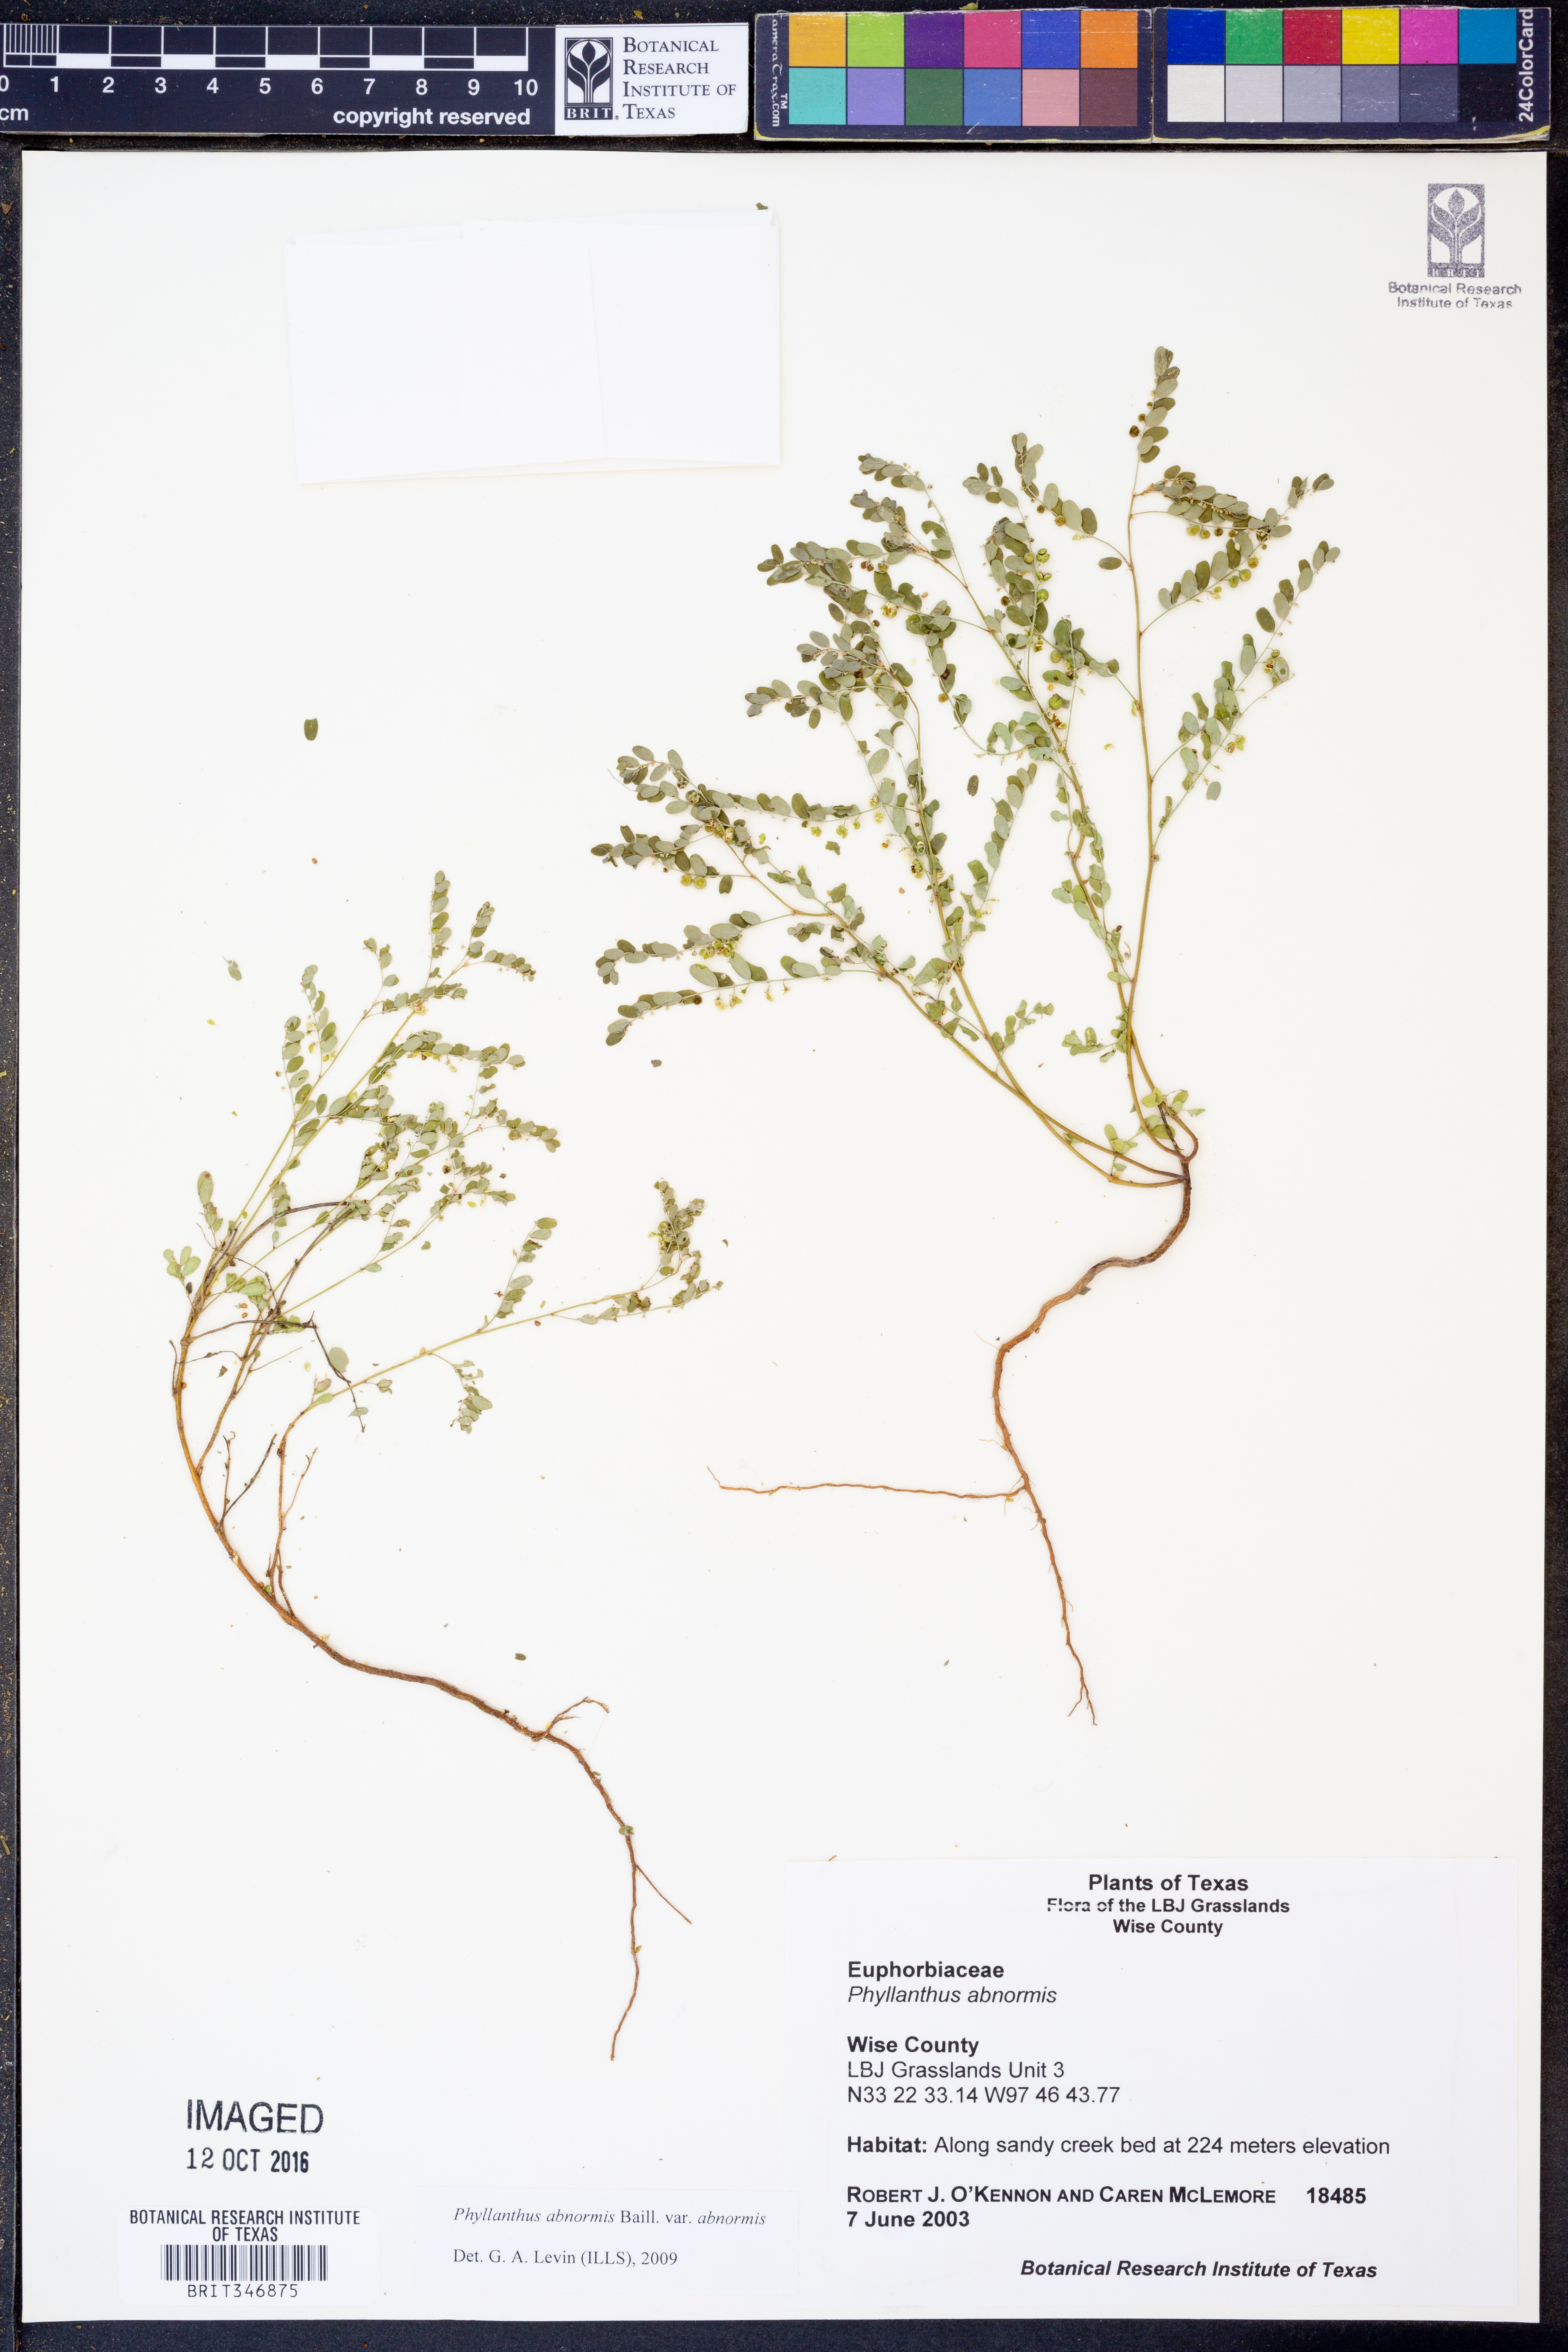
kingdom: Plantae
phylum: Tracheophyta
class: Magnoliopsida
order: Malpighiales
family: Phyllanthaceae
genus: Phyllanthus
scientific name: Phyllanthus abnormis
